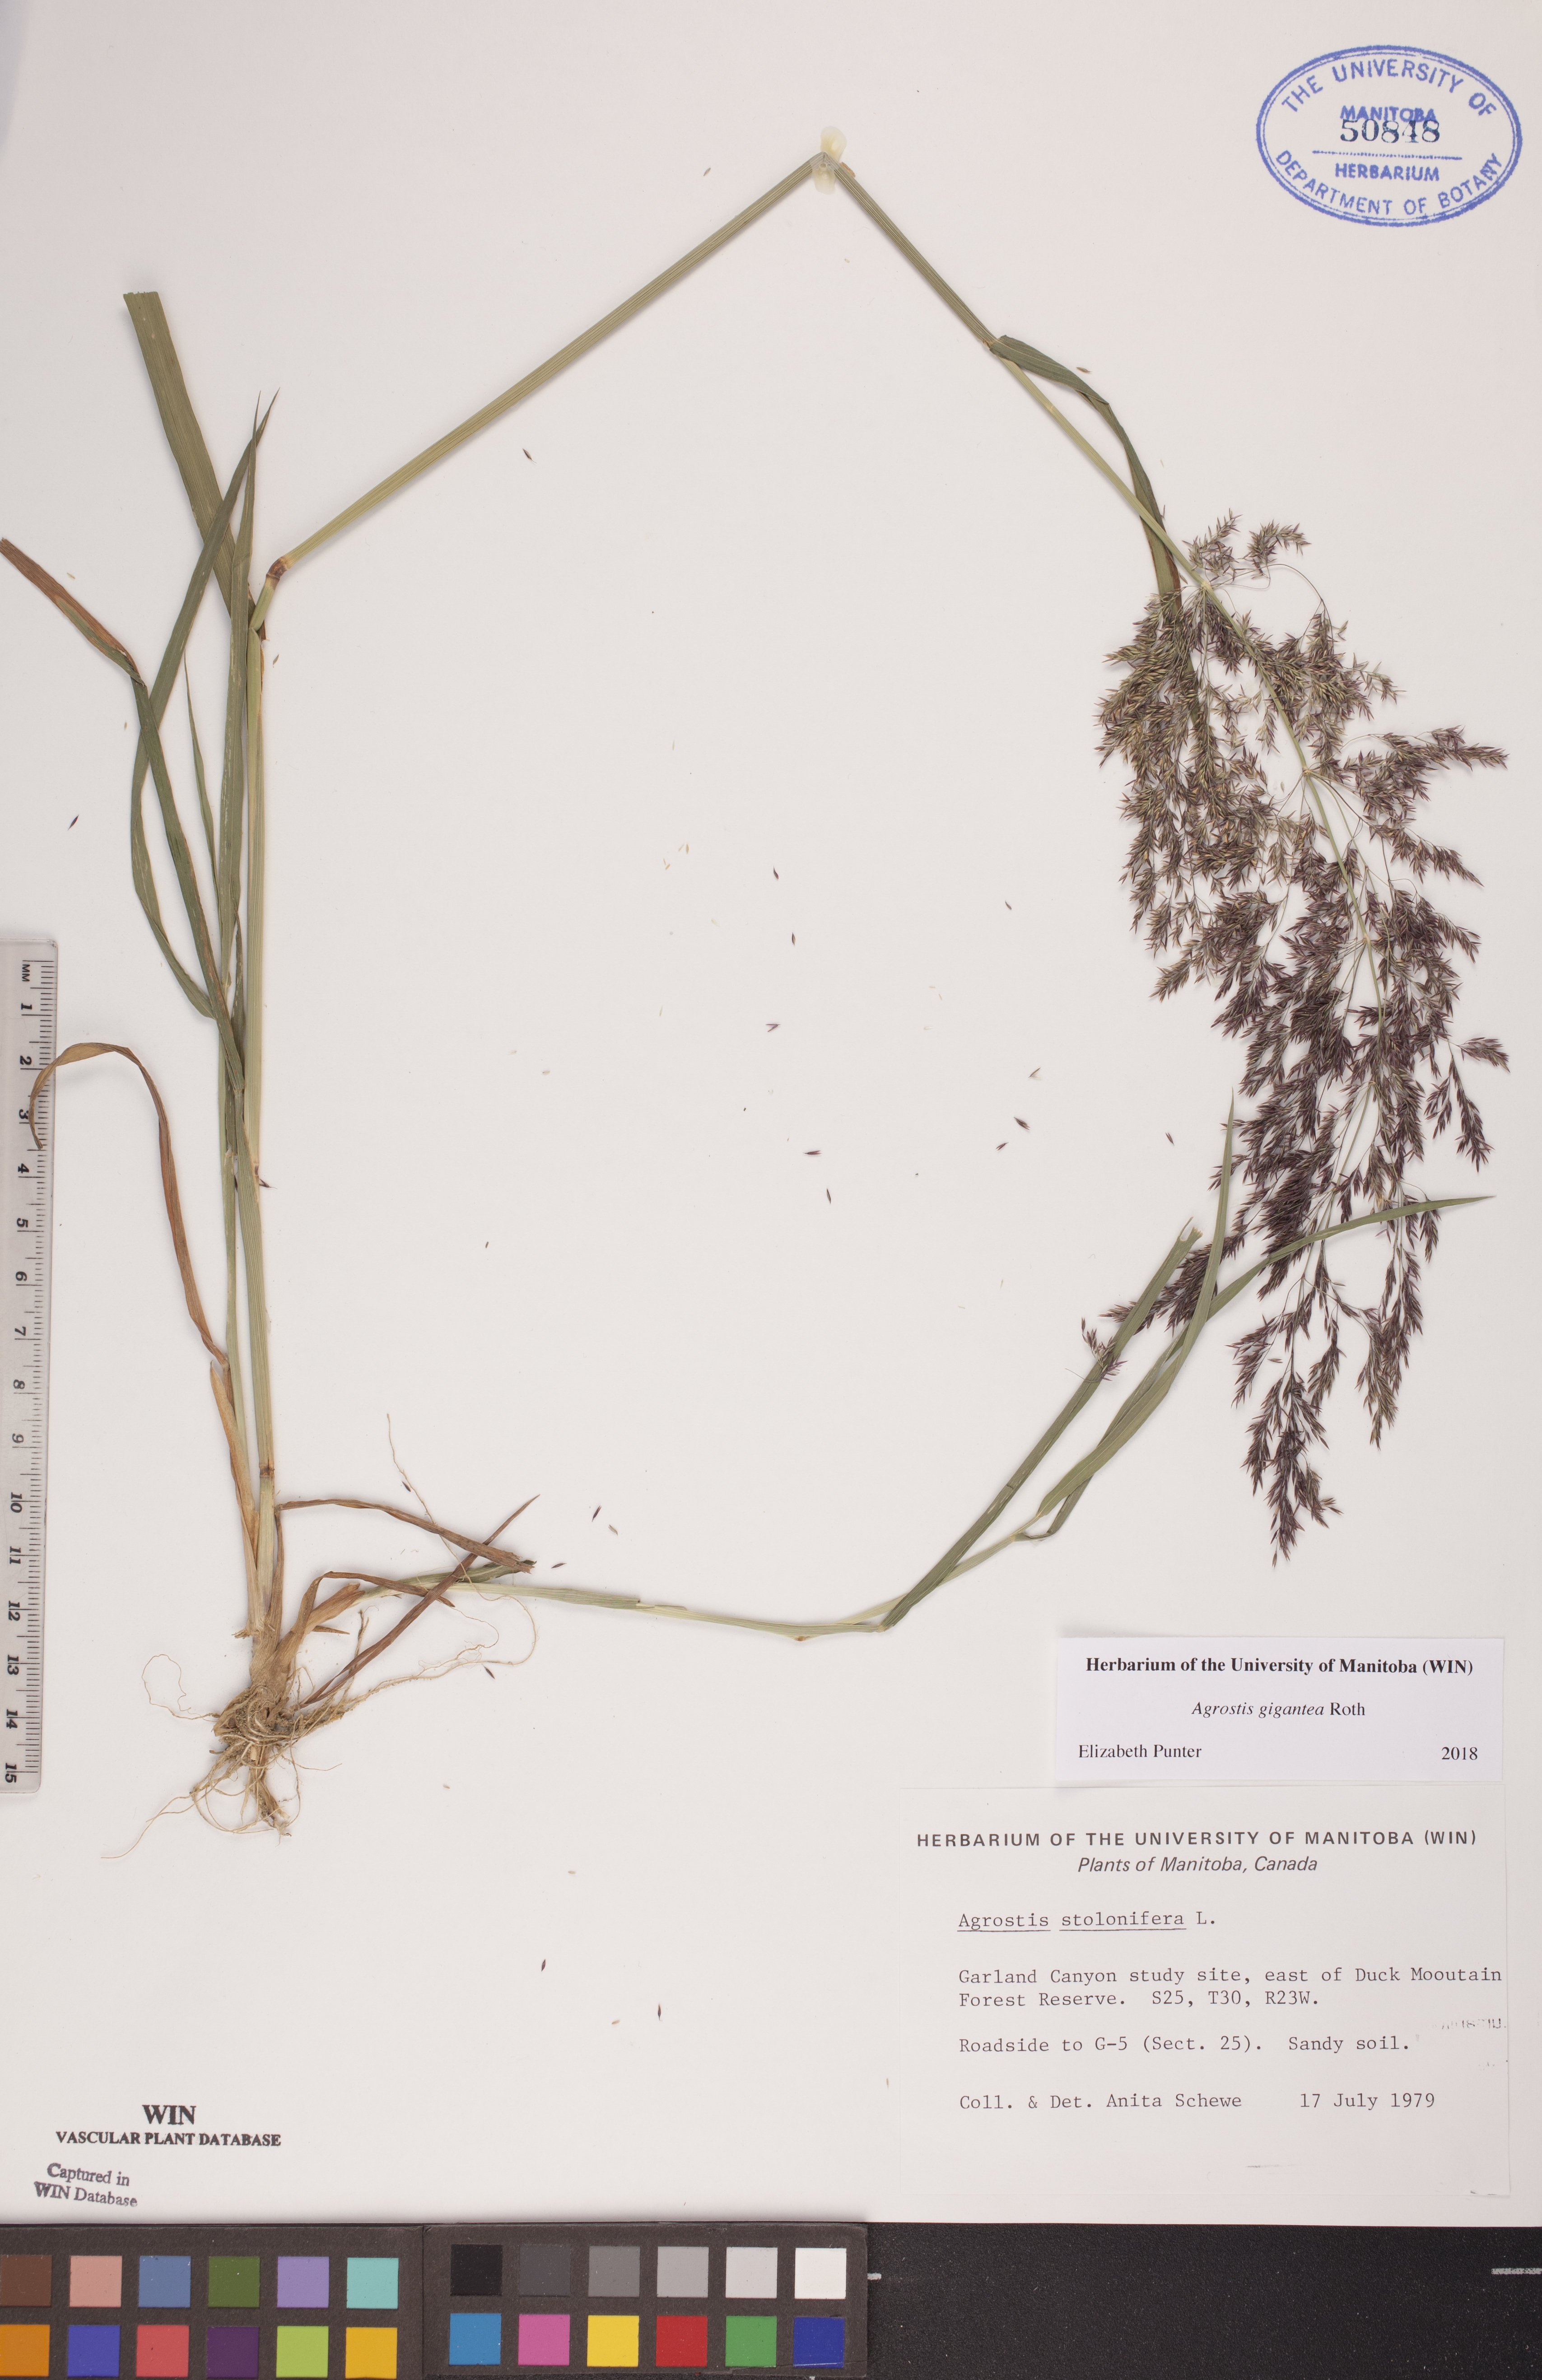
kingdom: Plantae
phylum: Tracheophyta
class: Liliopsida
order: Poales
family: Poaceae
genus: Agrostis
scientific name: Agrostis gigantea
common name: Black bent
